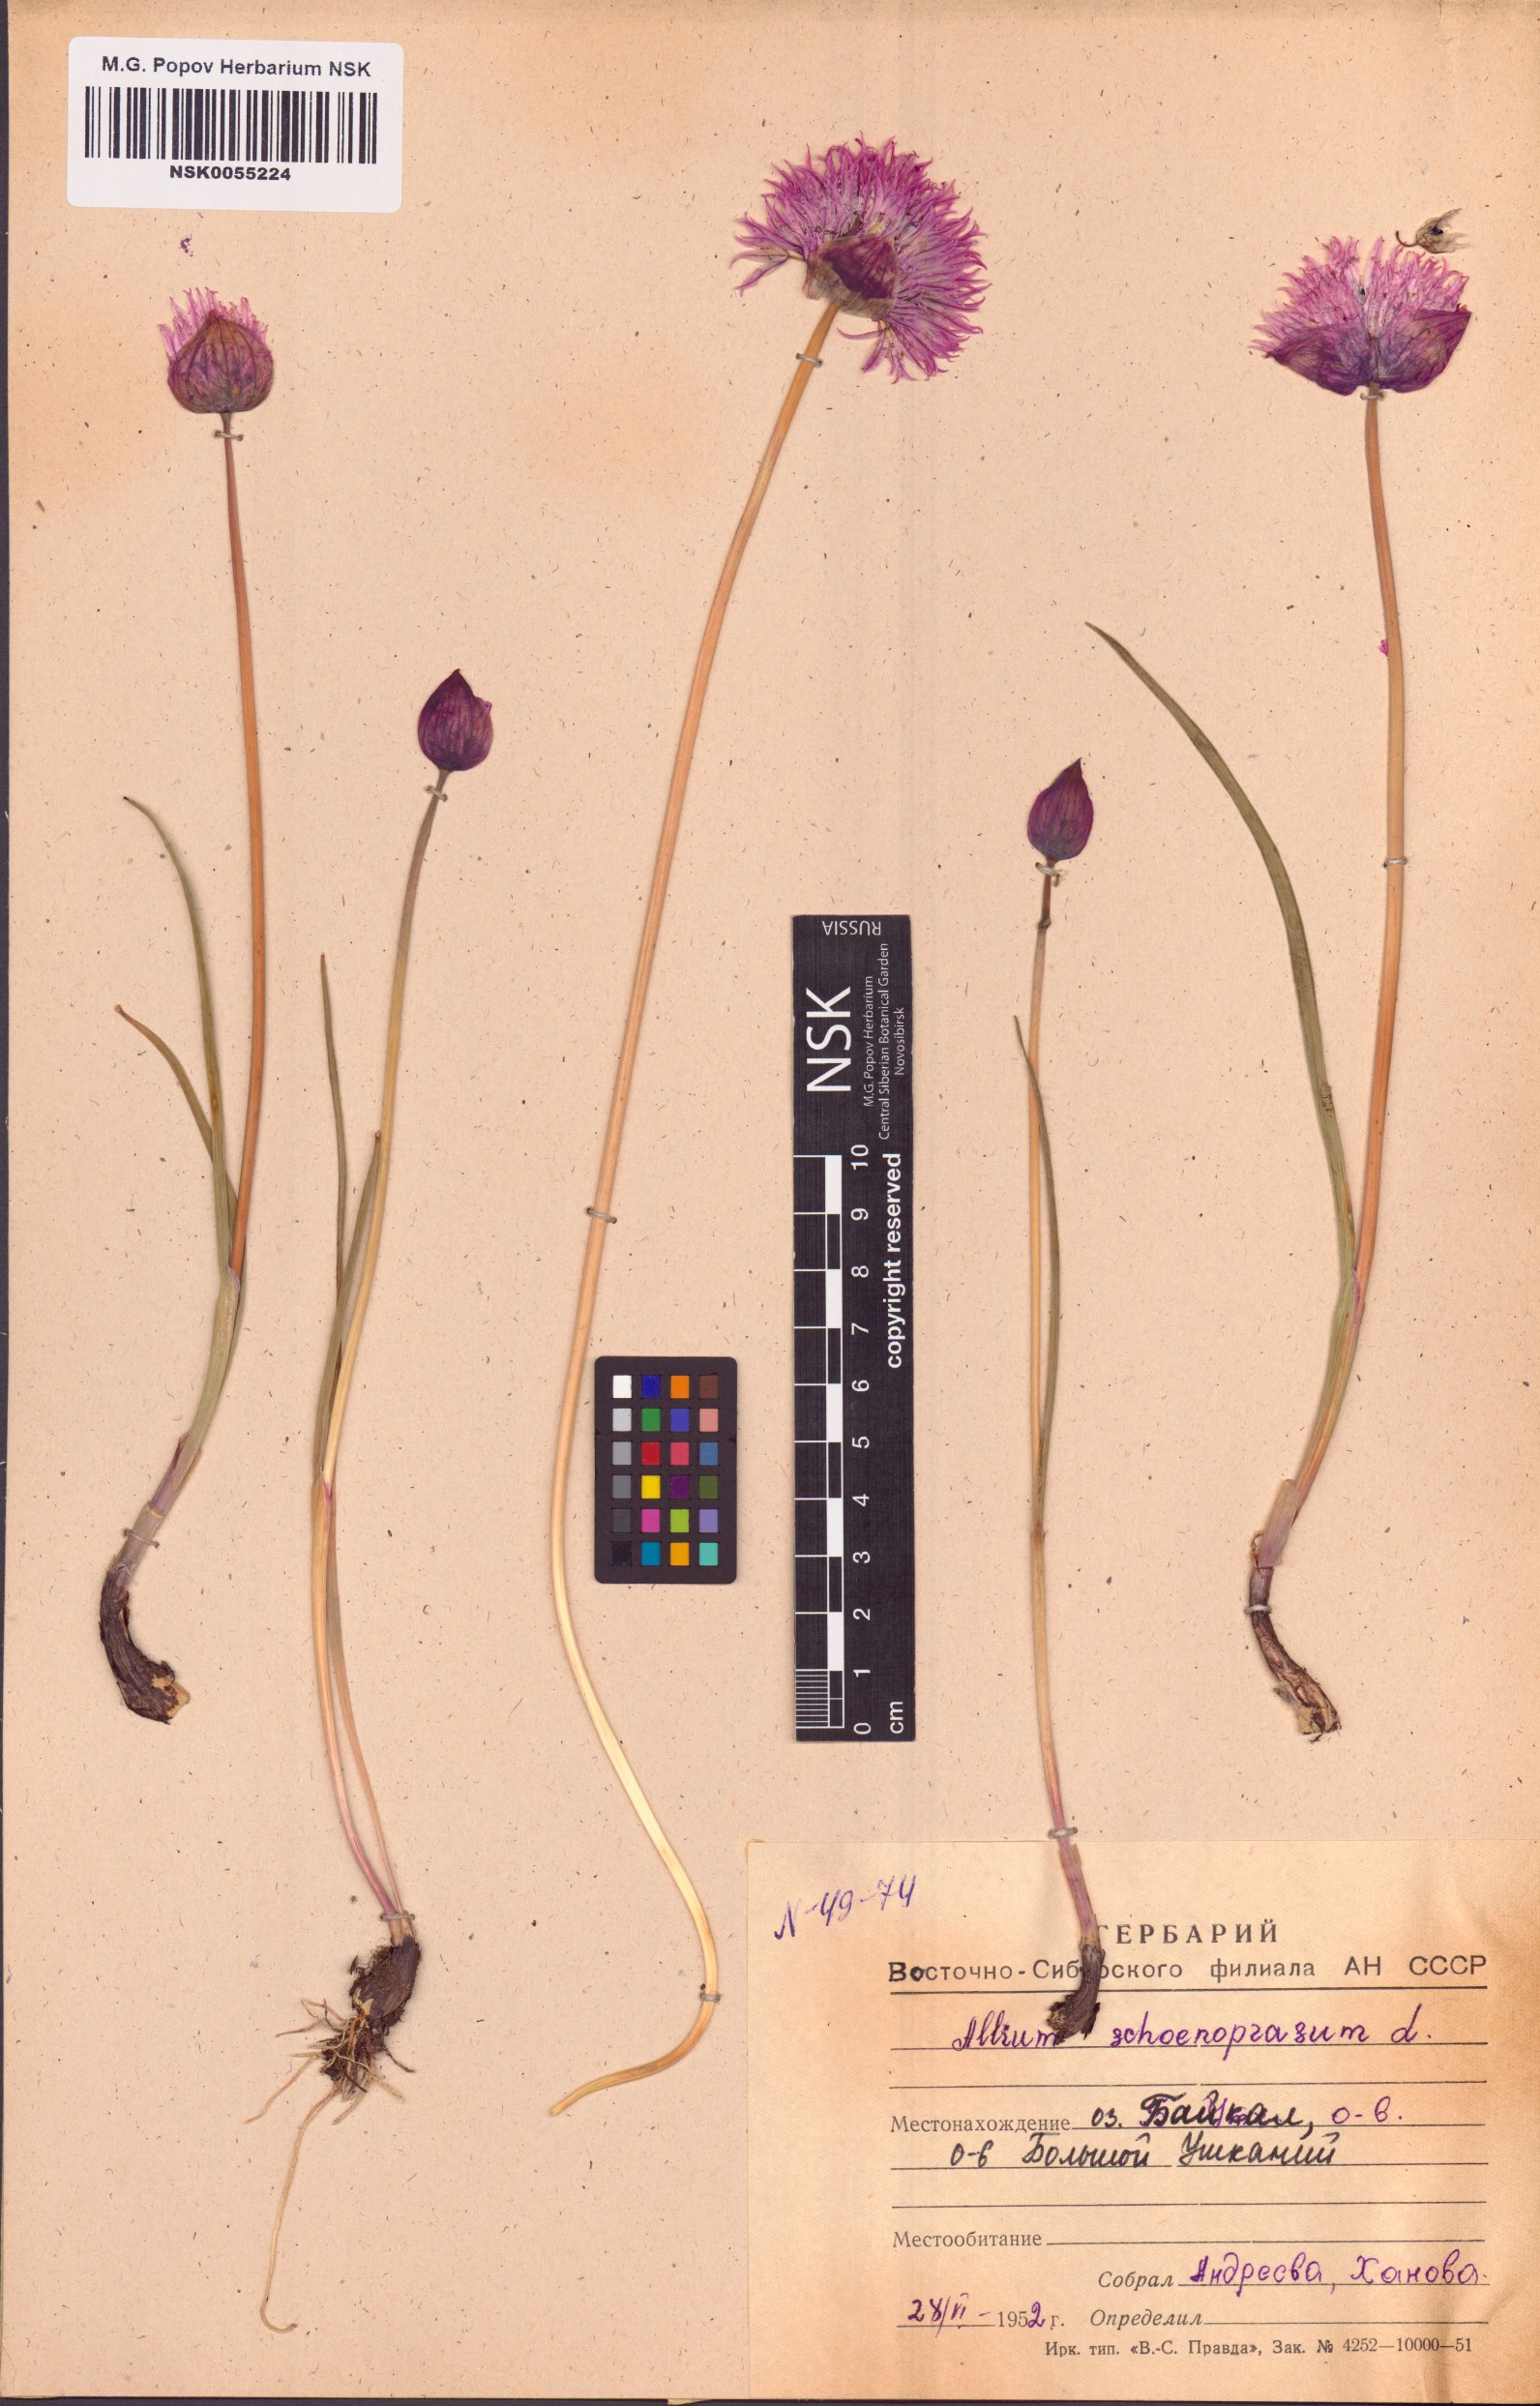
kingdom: Plantae
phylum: Tracheophyta
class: Liliopsida
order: Asparagales
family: Amaryllidaceae
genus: Allium
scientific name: Allium schoenoprasum
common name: Chives
